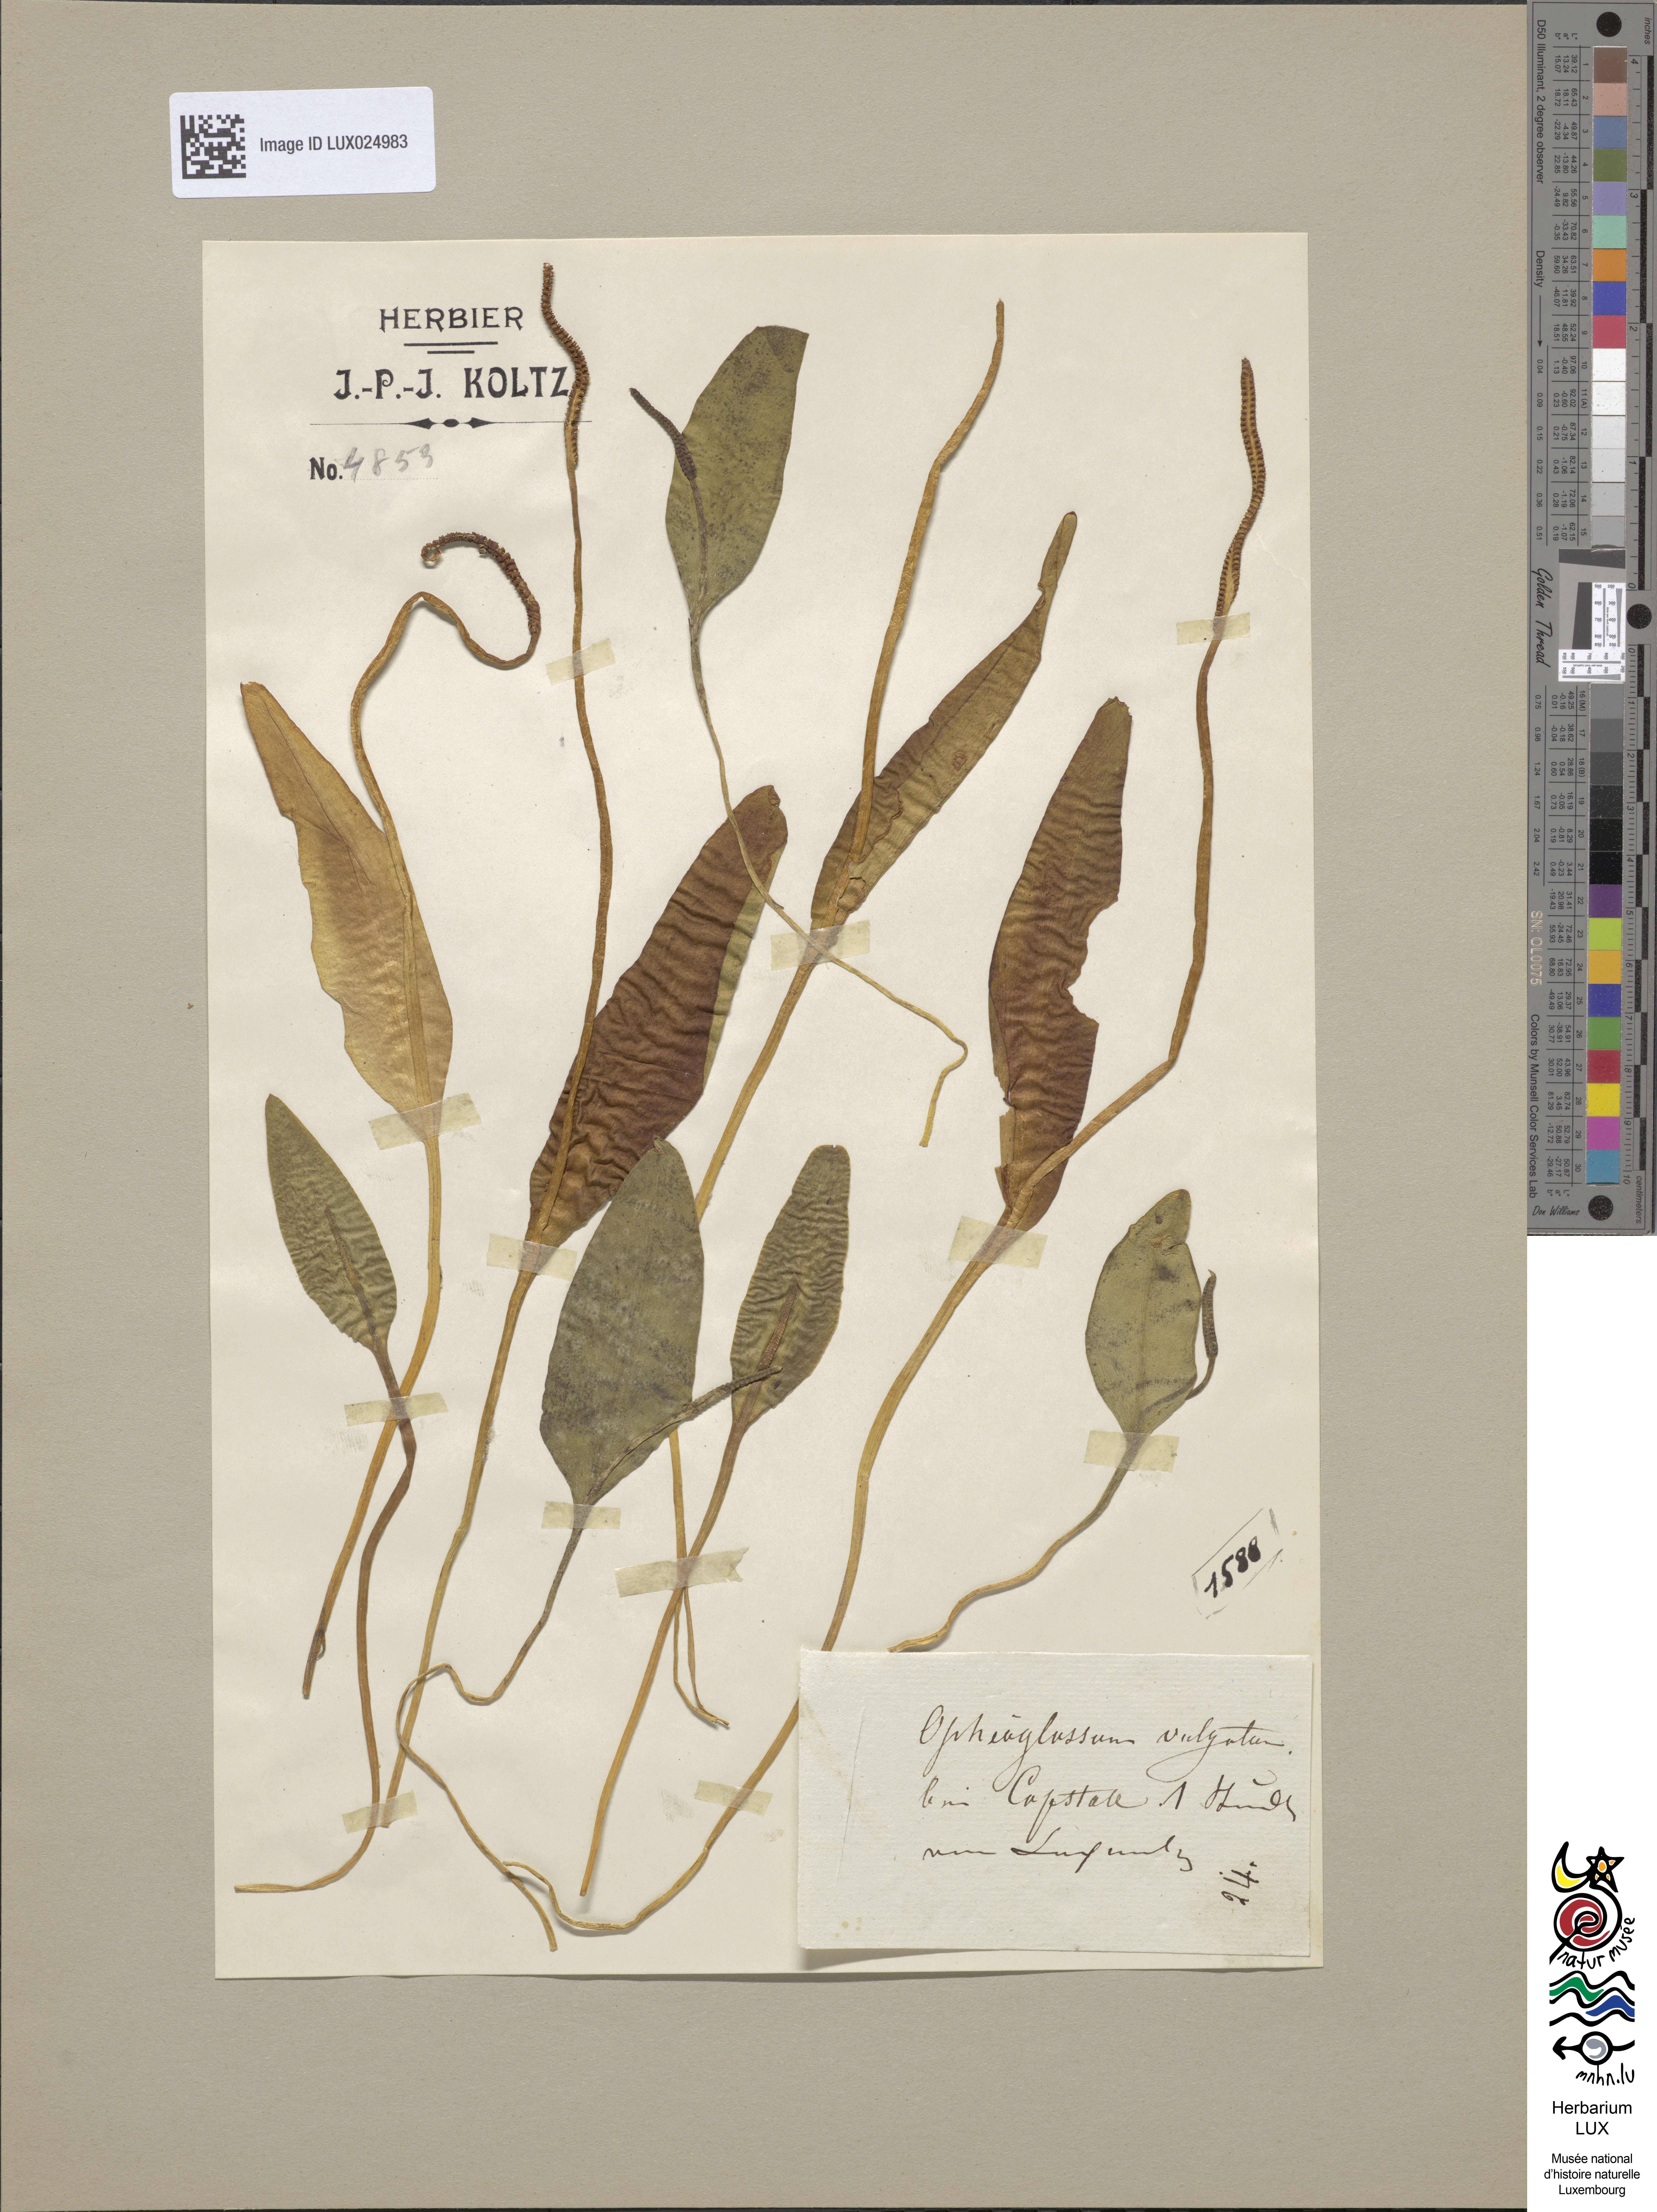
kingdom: Plantae
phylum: Tracheophyta
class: Polypodiopsida
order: Ophioglossales
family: Ophioglossaceae
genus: Ophioglossum
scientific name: Ophioglossum vulgatum
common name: Adder's-tongue
